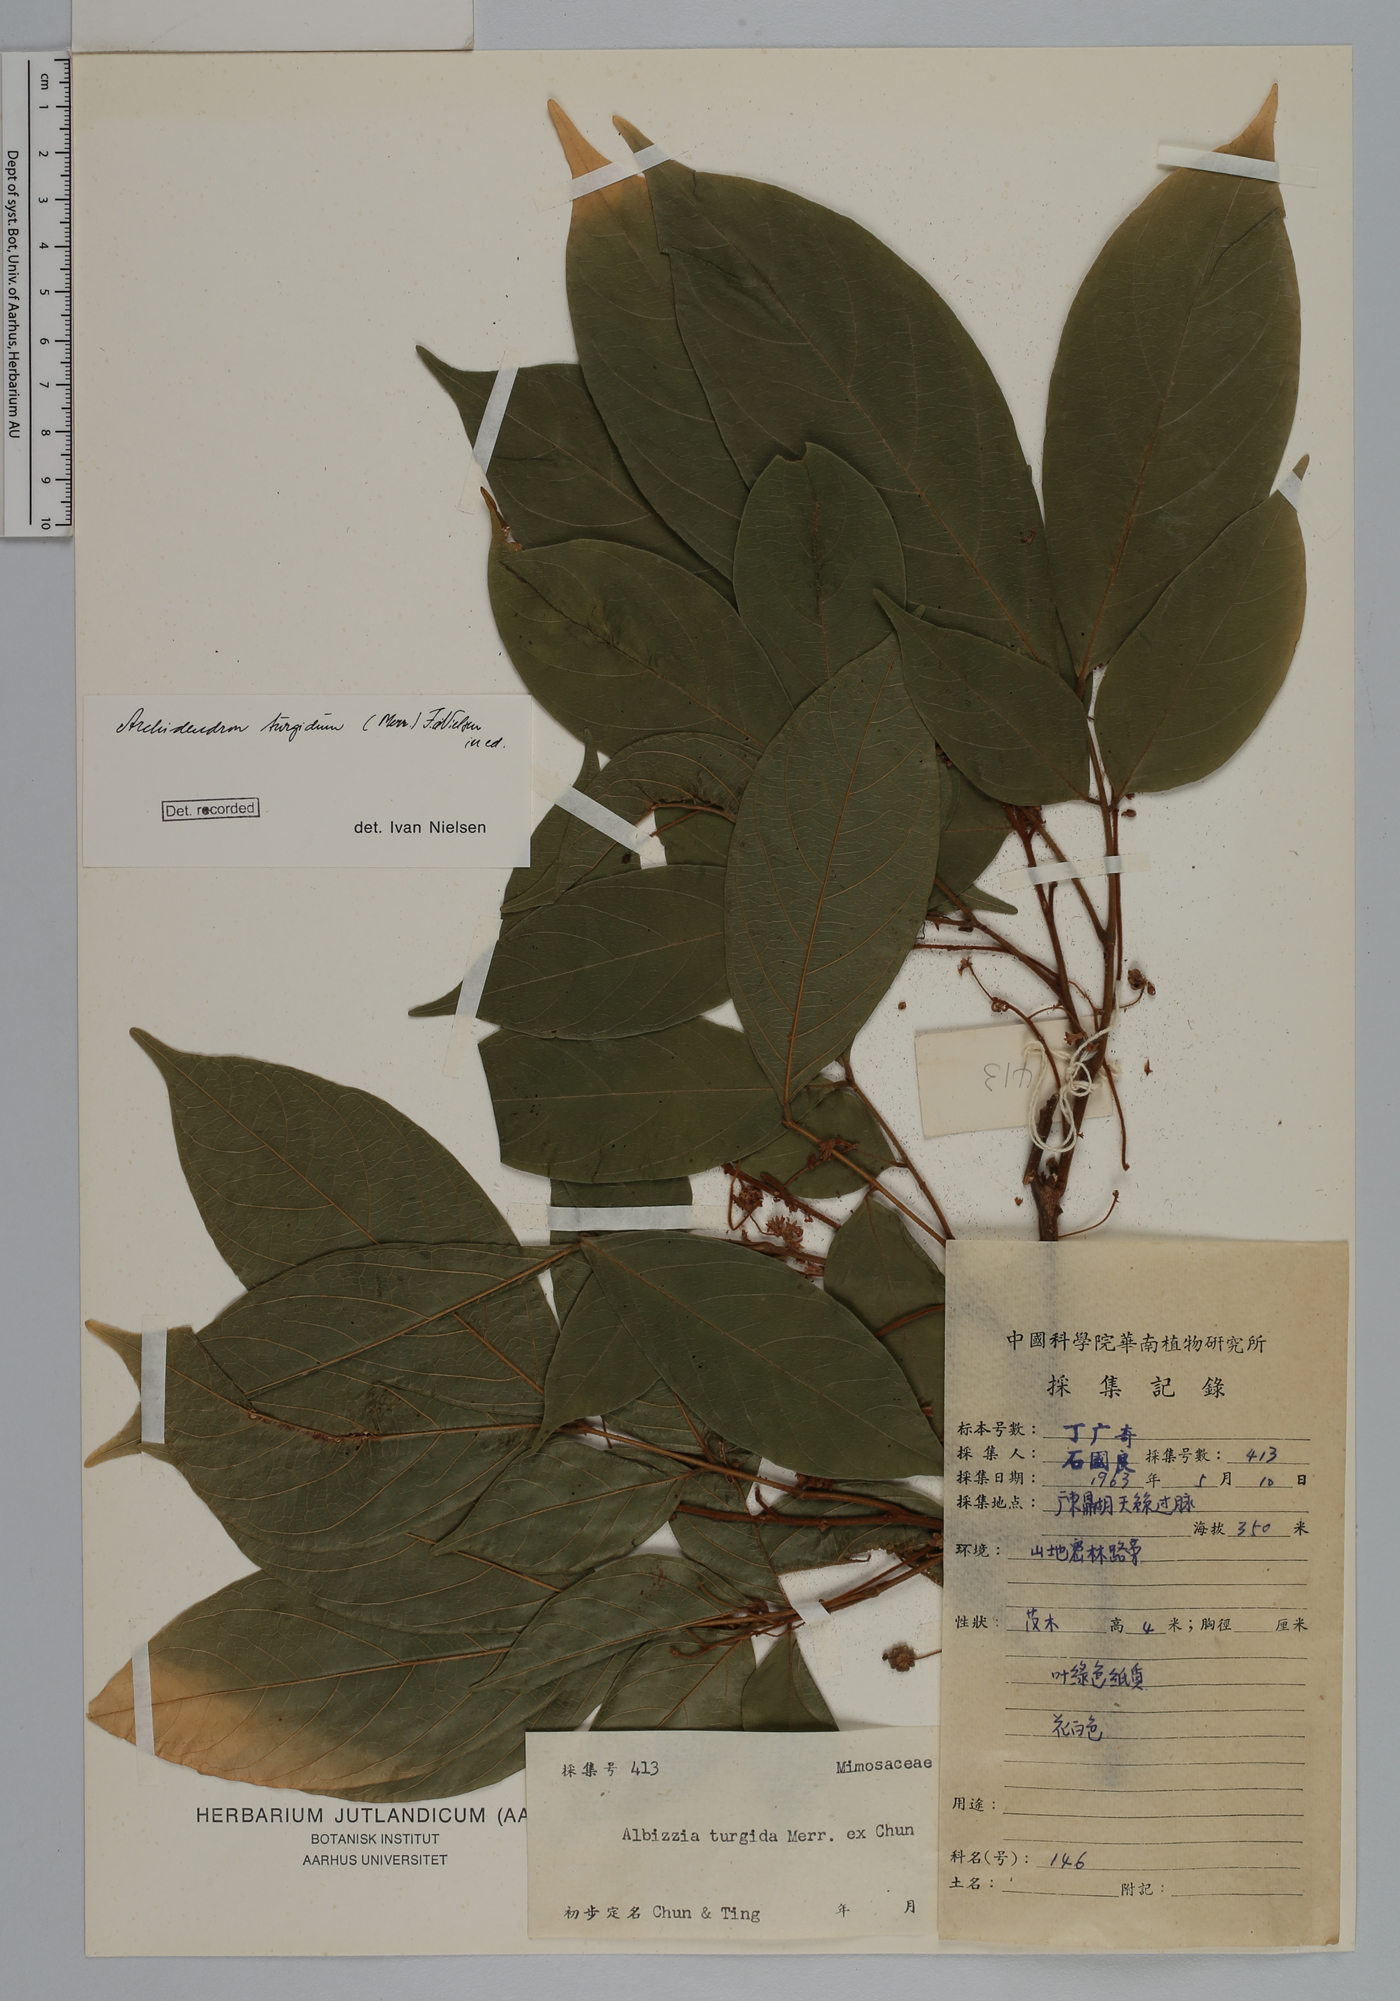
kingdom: Plantae
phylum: Tracheophyta
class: Magnoliopsida
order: Fabales
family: Fabaceae
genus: Archidendron
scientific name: Archidendron turgidum
